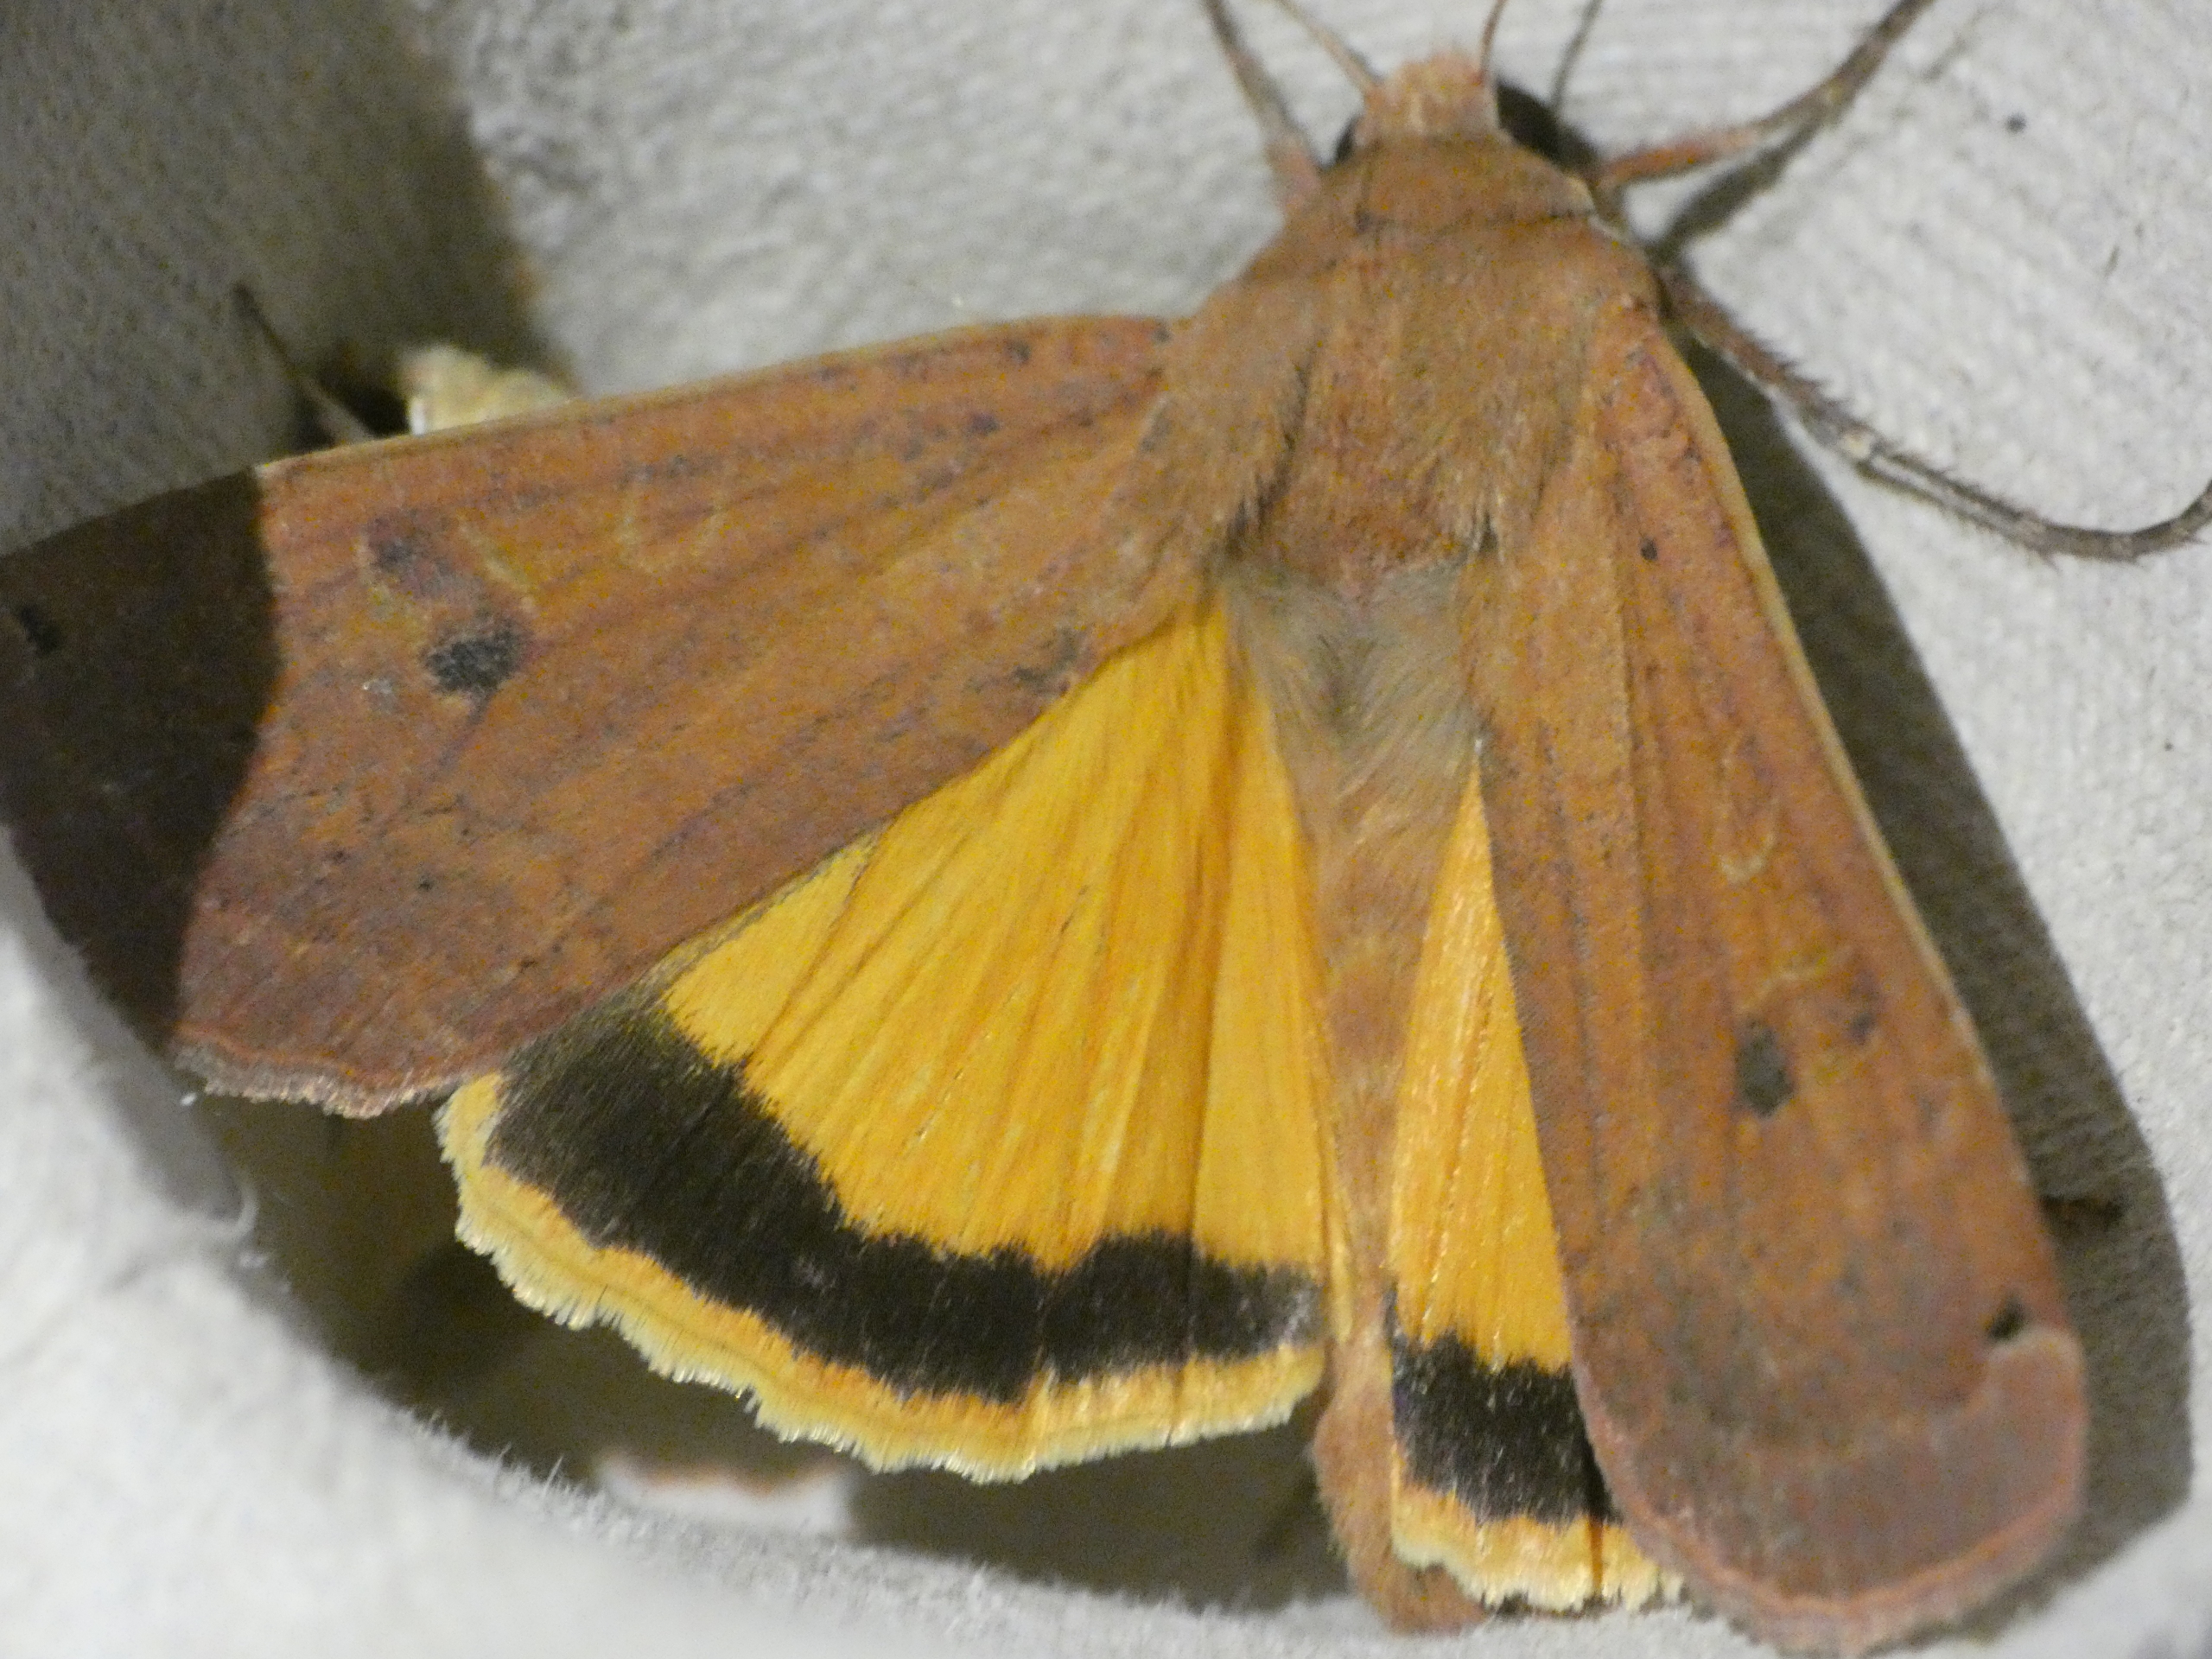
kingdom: Animalia
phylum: Arthropoda
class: Insecta
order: Lepidoptera
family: Noctuidae
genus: Noctua
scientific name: Noctua pronuba
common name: Stor smutugle
